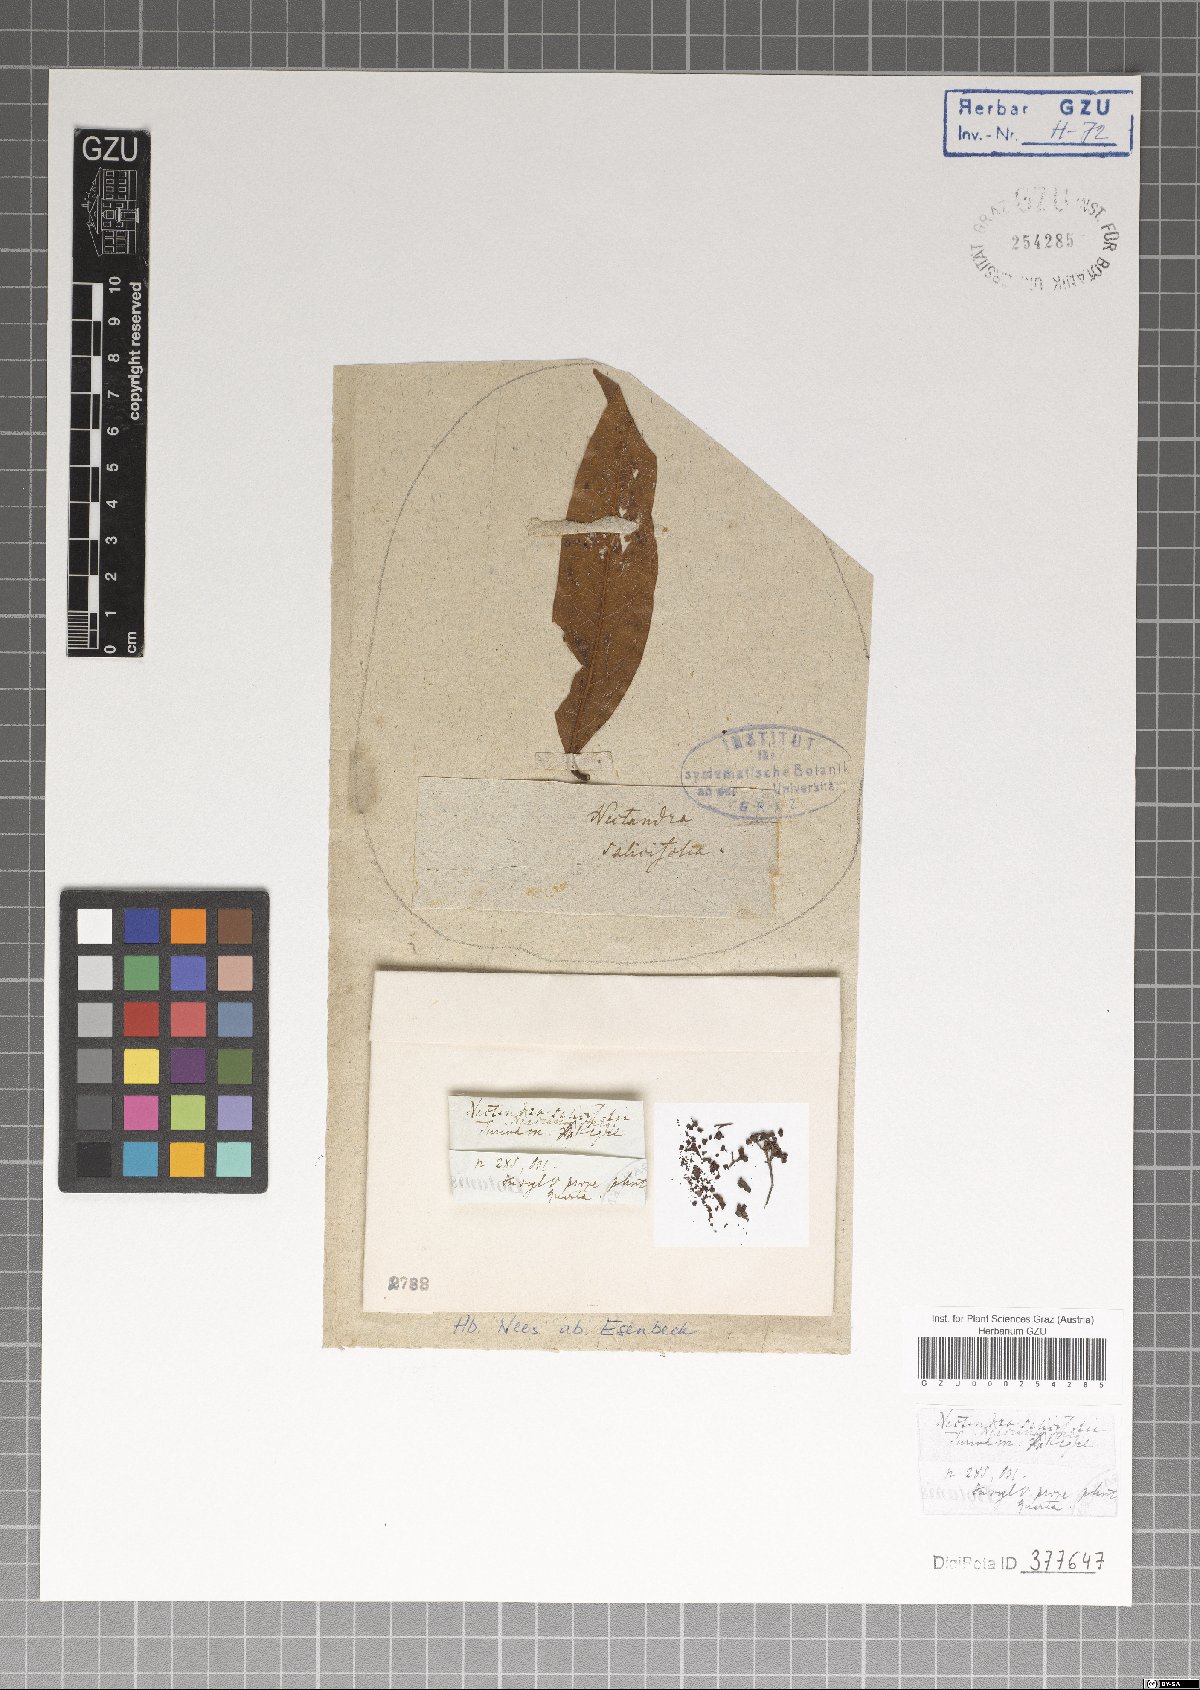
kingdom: Plantae
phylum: Tracheophyta
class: Magnoliopsida
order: Laurales
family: Lauraceae
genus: Damburneya
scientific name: Damburneya salicifolia
